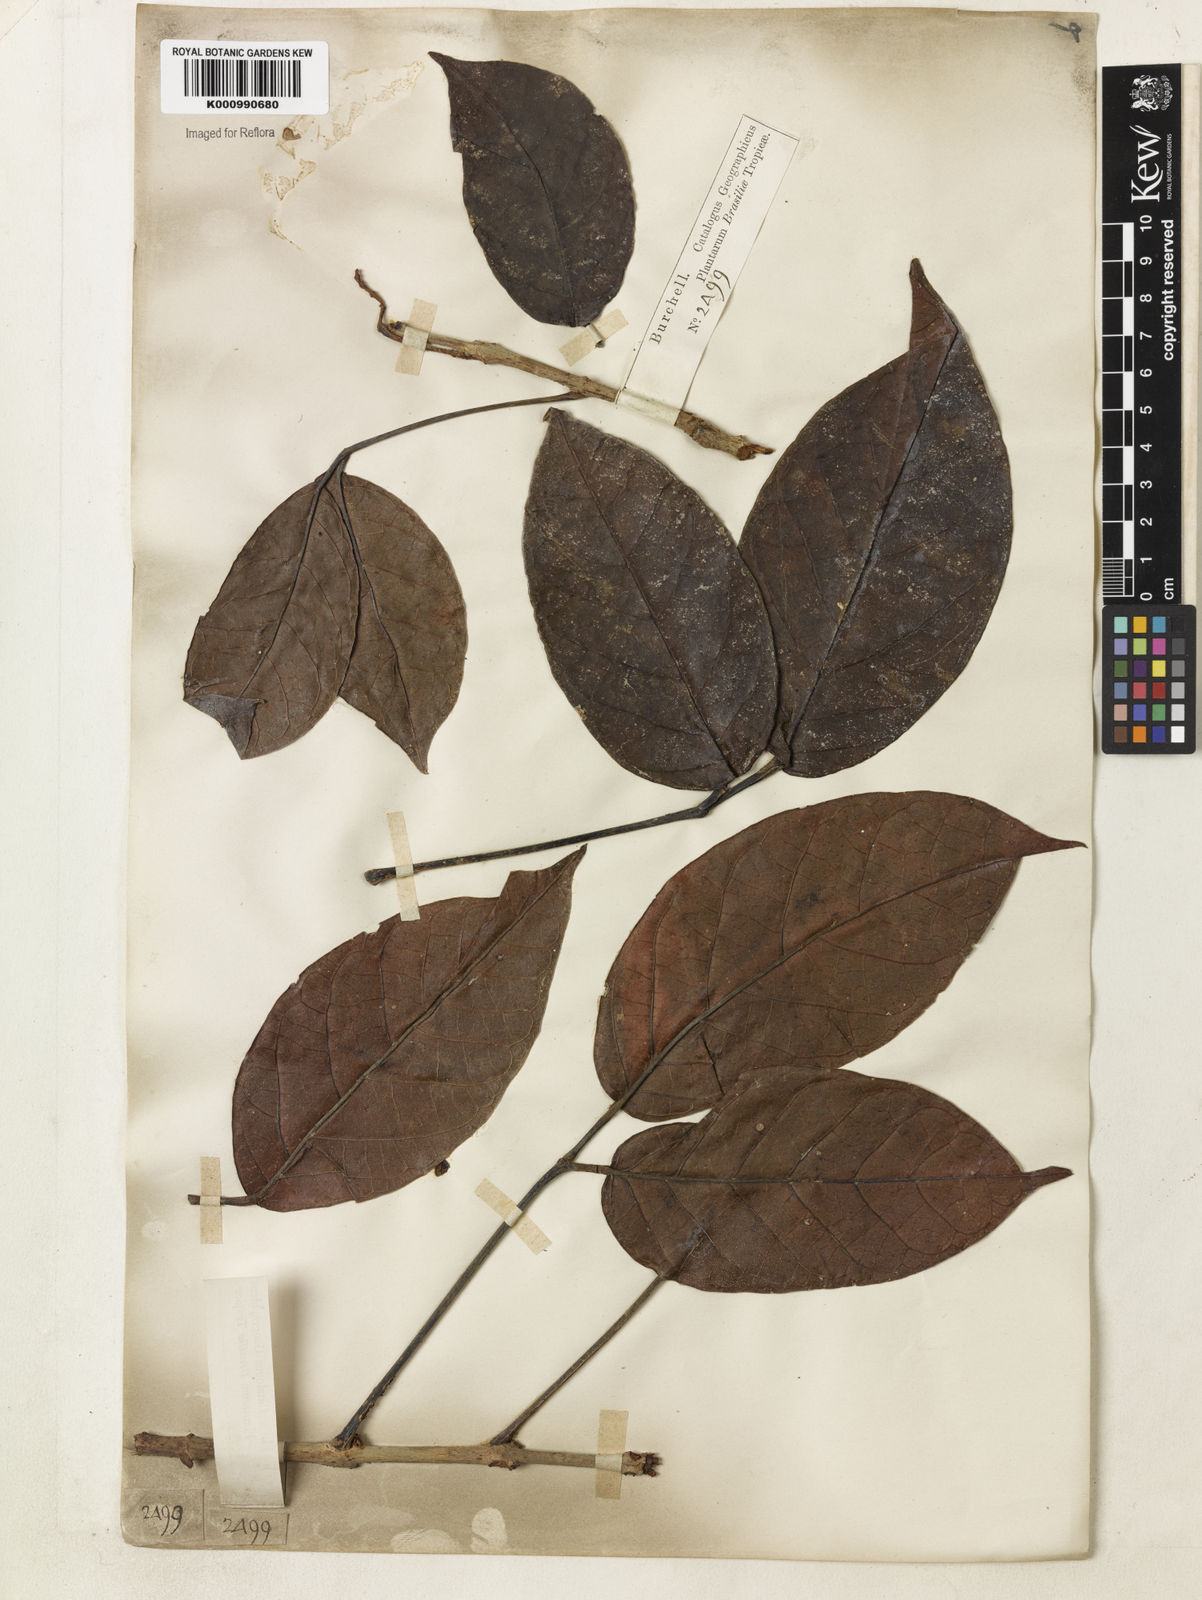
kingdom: Plantae
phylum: Tracheophyta
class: Magnoliopsida
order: Lamiales
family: Bignoniaceae
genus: Callichlamys
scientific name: Callichlamys latifolia
